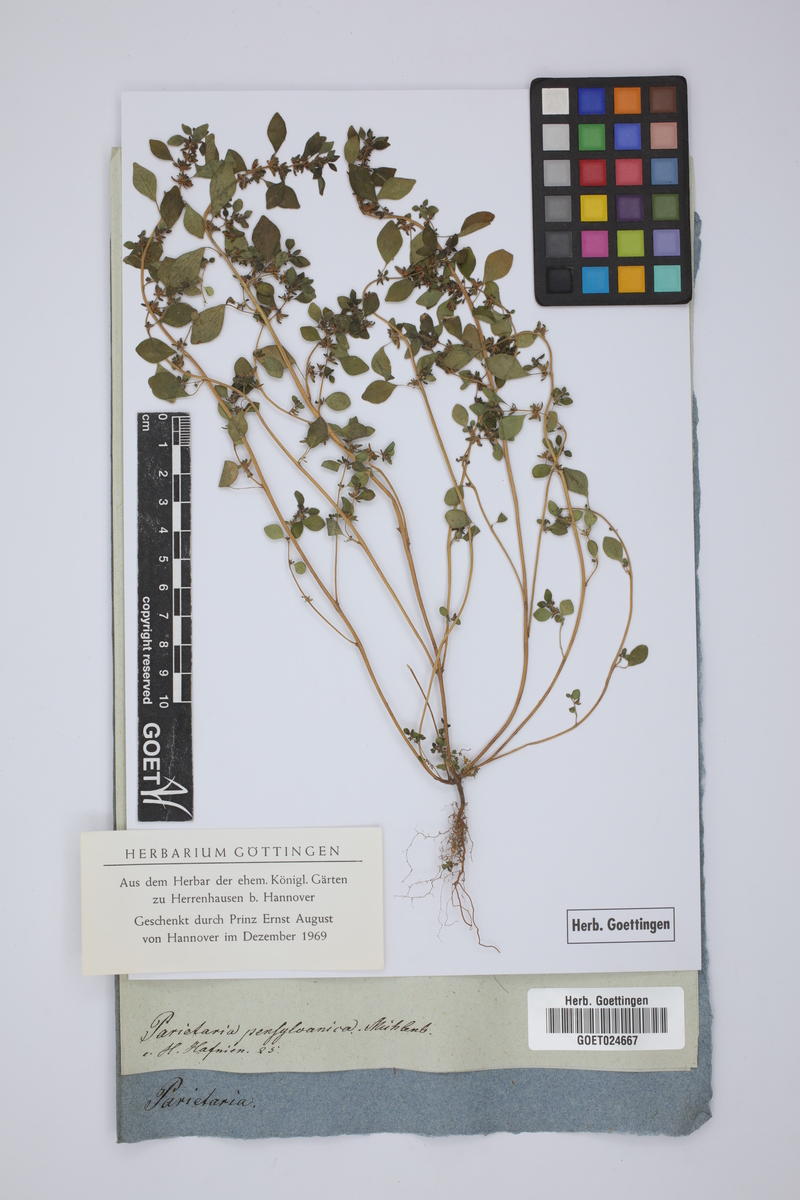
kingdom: Plantae
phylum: Tracheophyta
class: Magnoliopsida
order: Rosales
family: Urticaceae
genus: Parietaria
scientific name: Parietaria pensylvanica
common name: Pennsylvania pellitory
